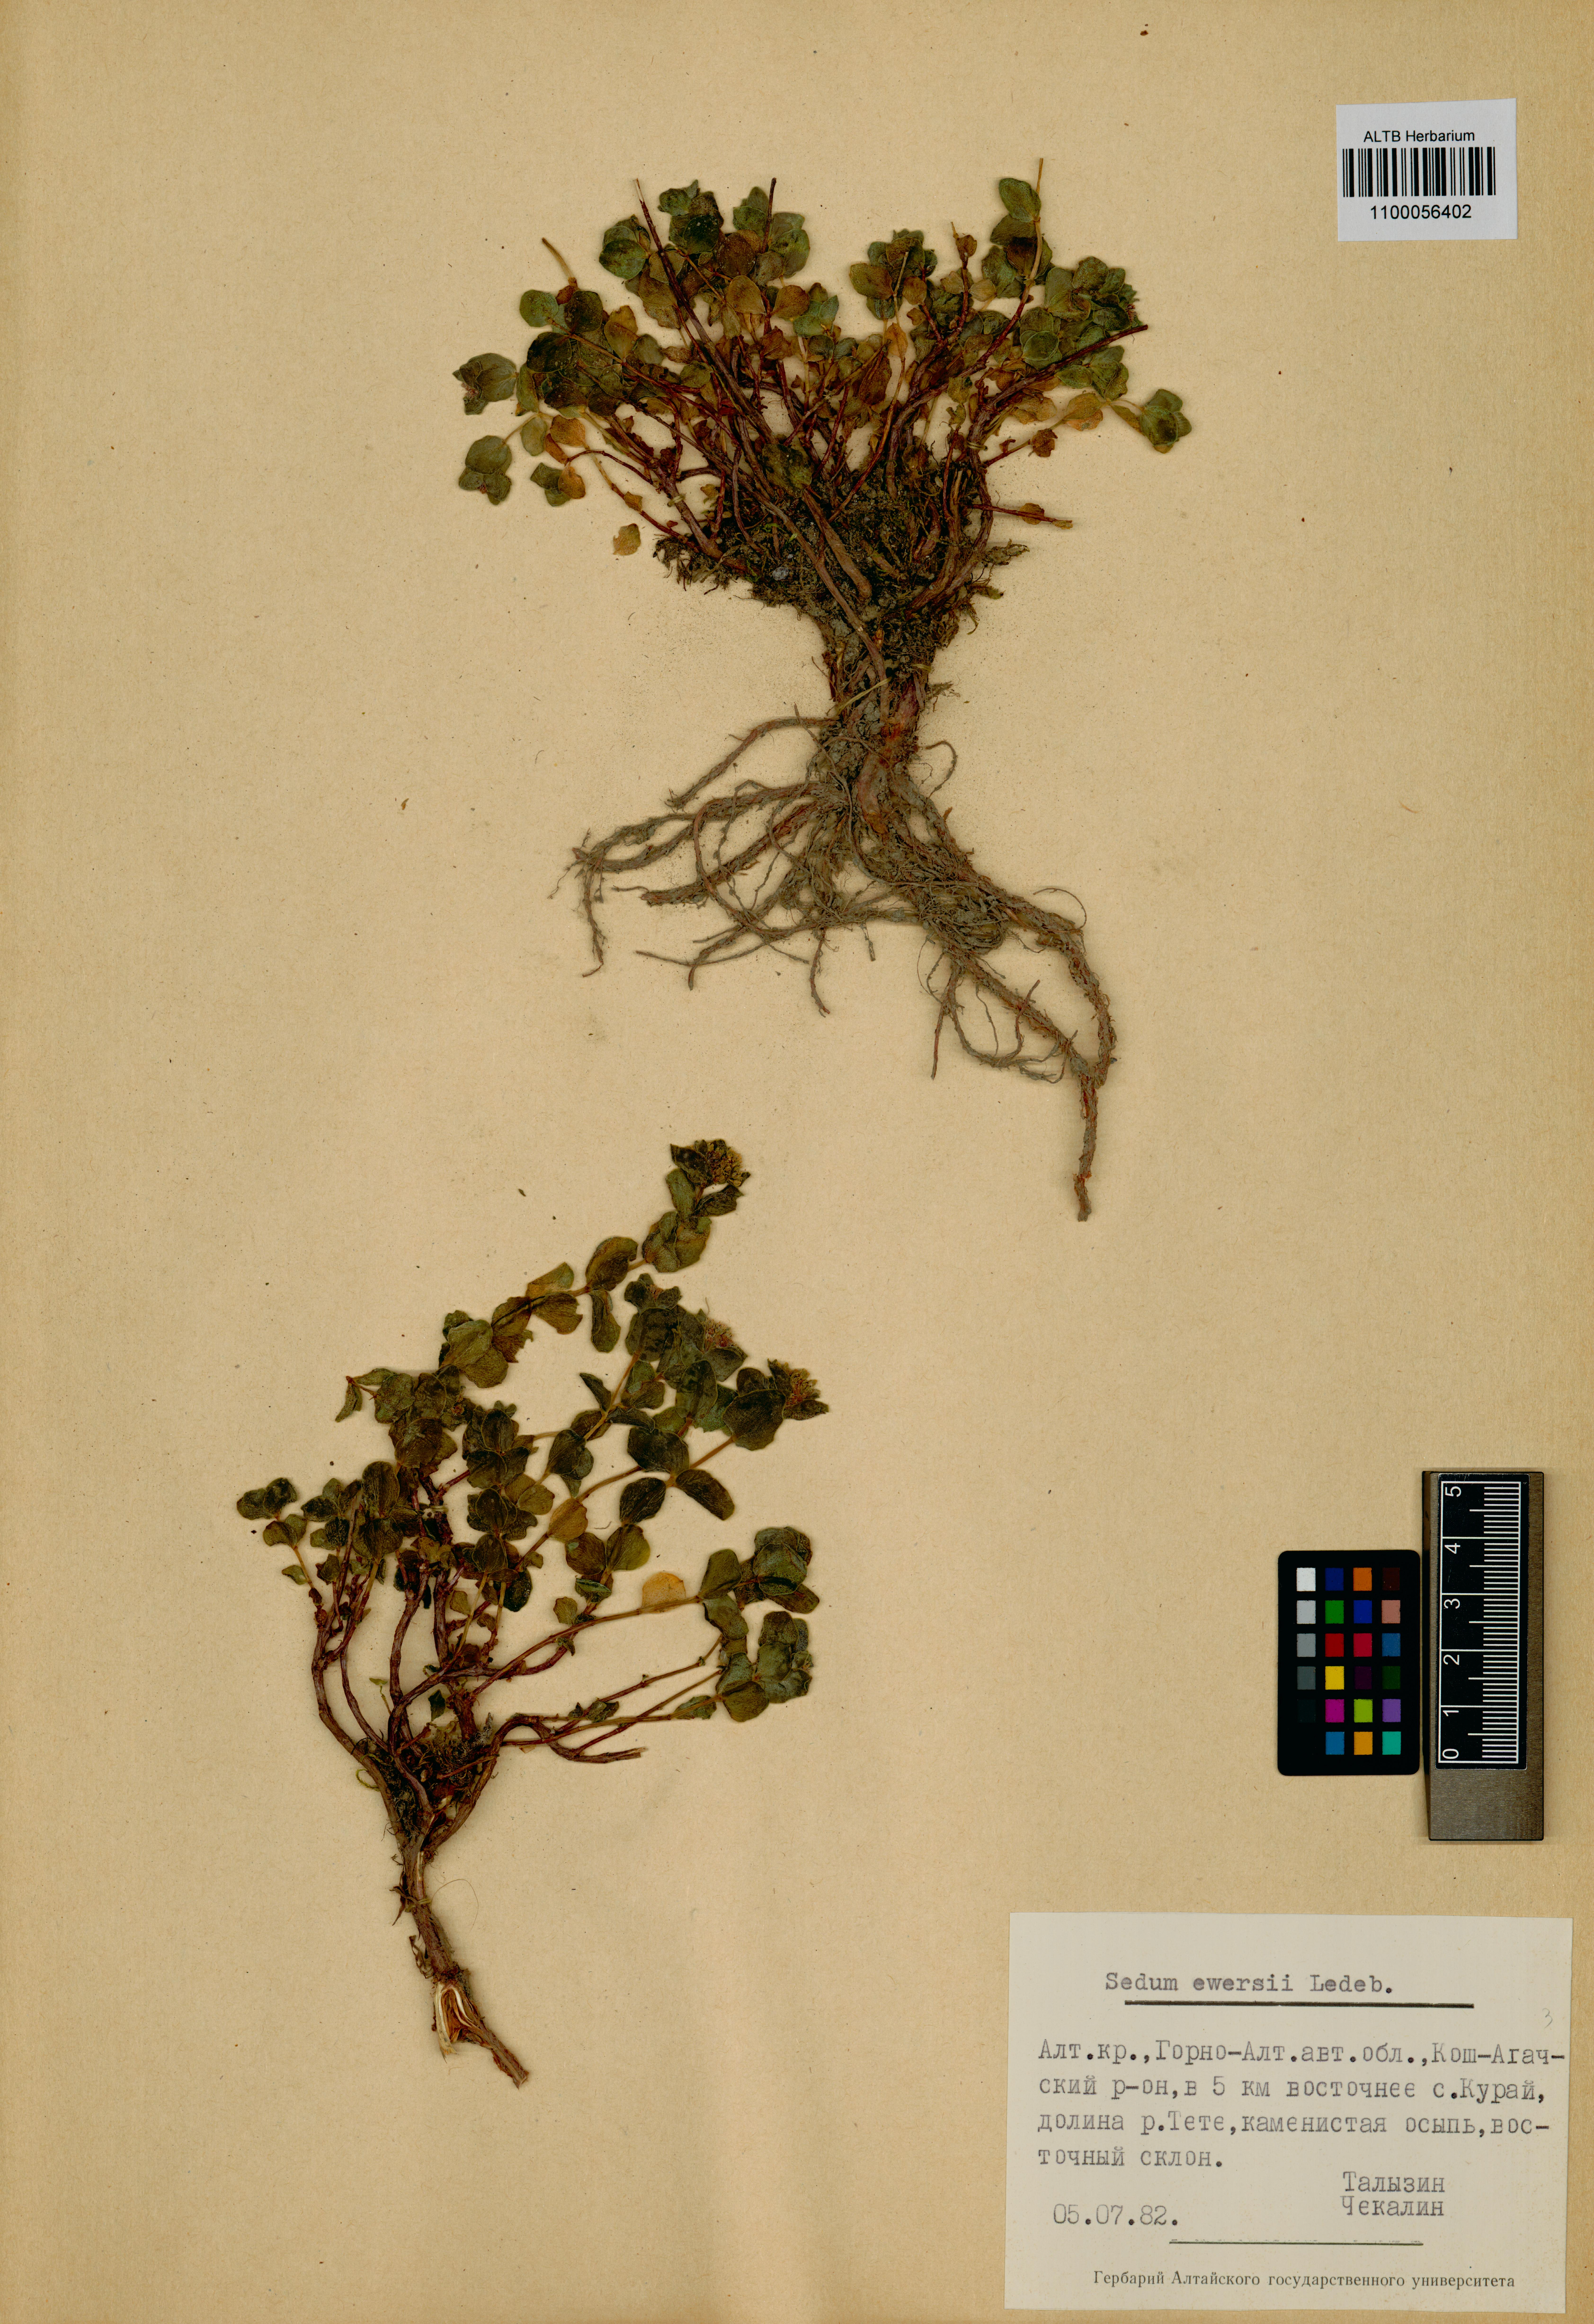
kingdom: Plantae
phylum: Tracheophyta
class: Magnoliopsida
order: Saxifragales
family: Crassulaceae
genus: Hylotelephium
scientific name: Hylotelephium ewersii
